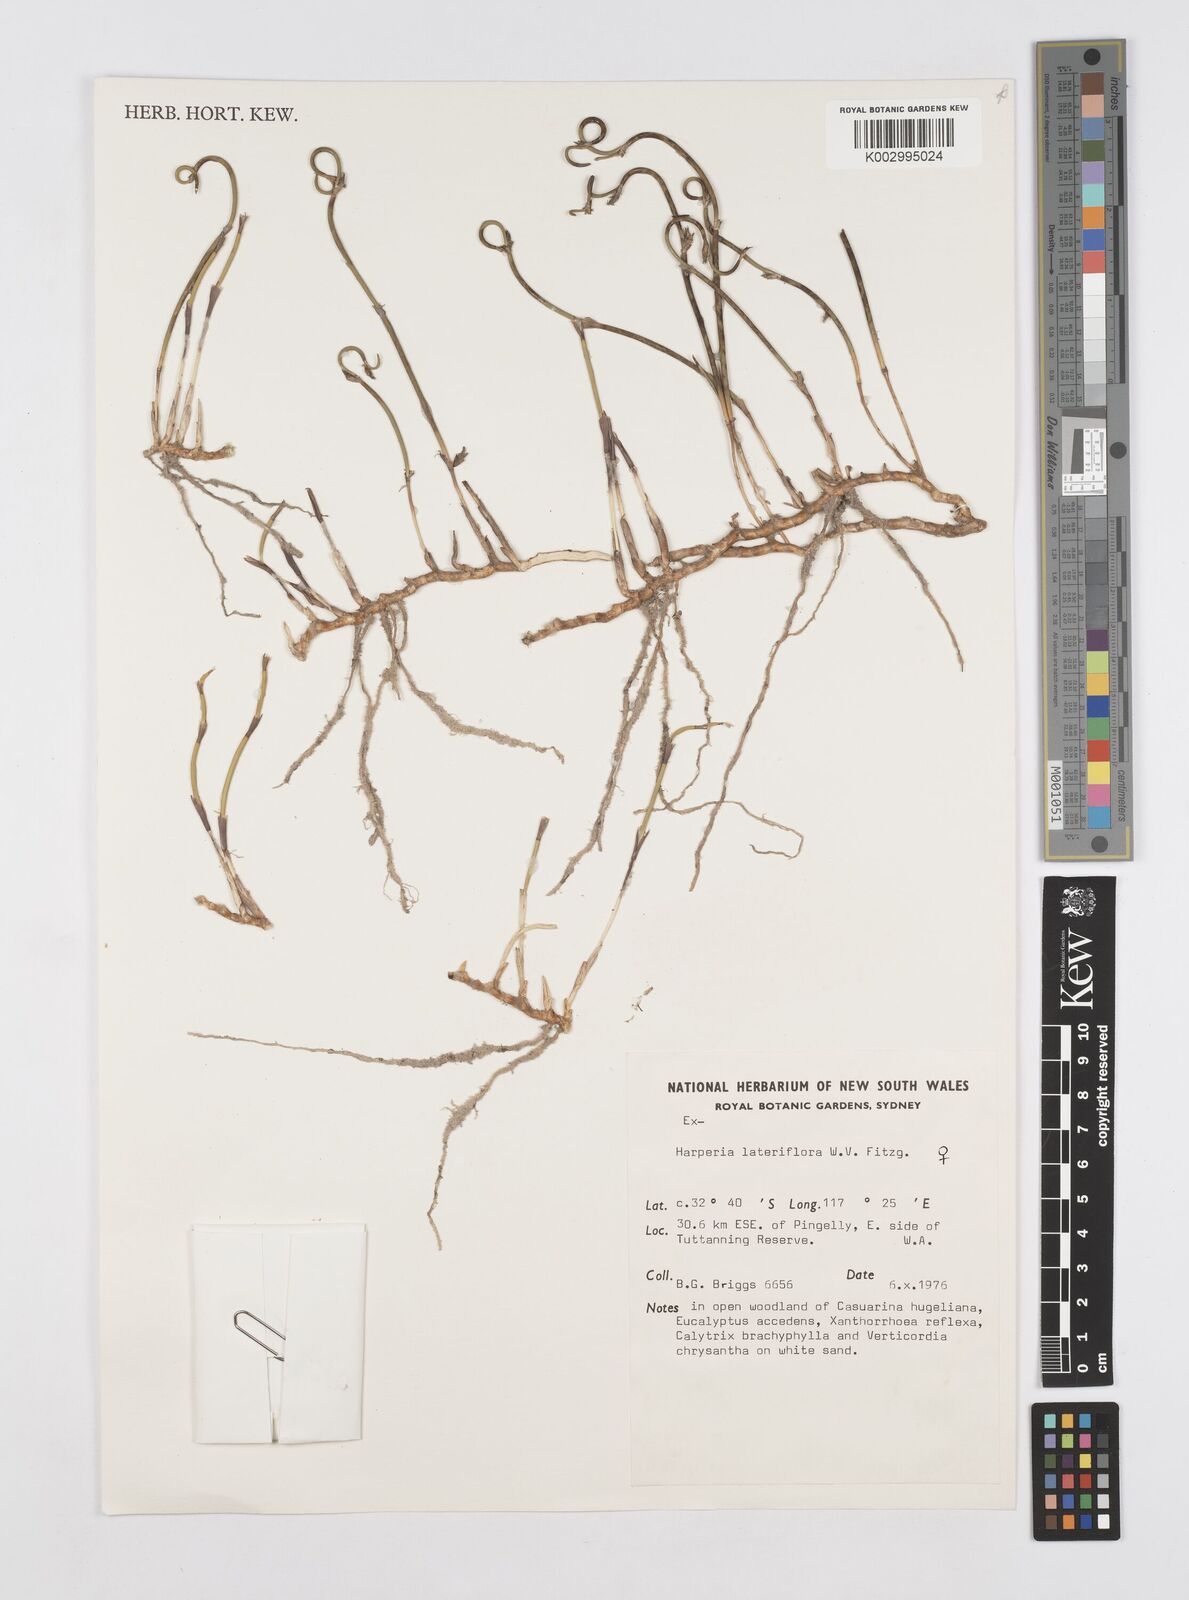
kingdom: Plantae
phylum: Tracheophyta
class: Liliopsida
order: Poales
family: Restionaceae
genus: Desmocladus
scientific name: Desmocladus lateriflorus
